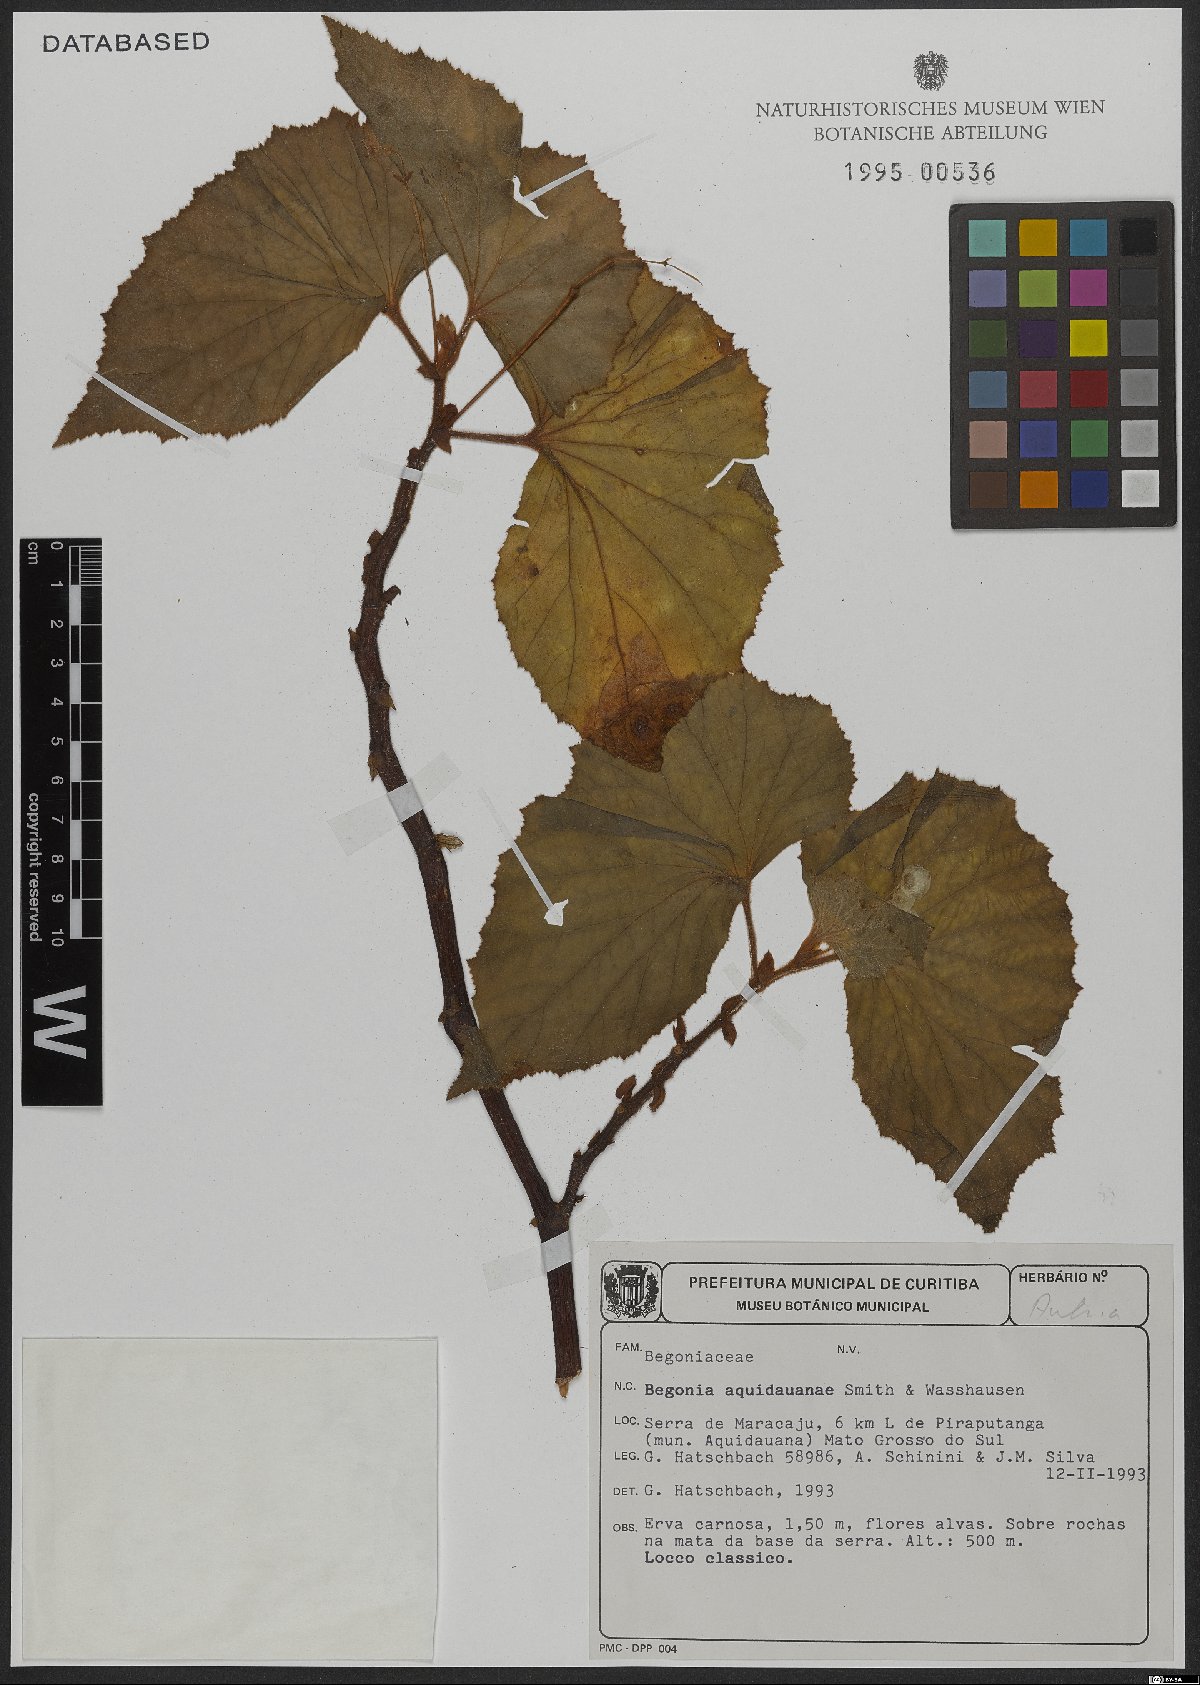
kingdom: Plantae
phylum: Tracheophyta
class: Magnoliopsida
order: Cucurbitales
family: Begoniaceae
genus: Begonia
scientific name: Begonia
